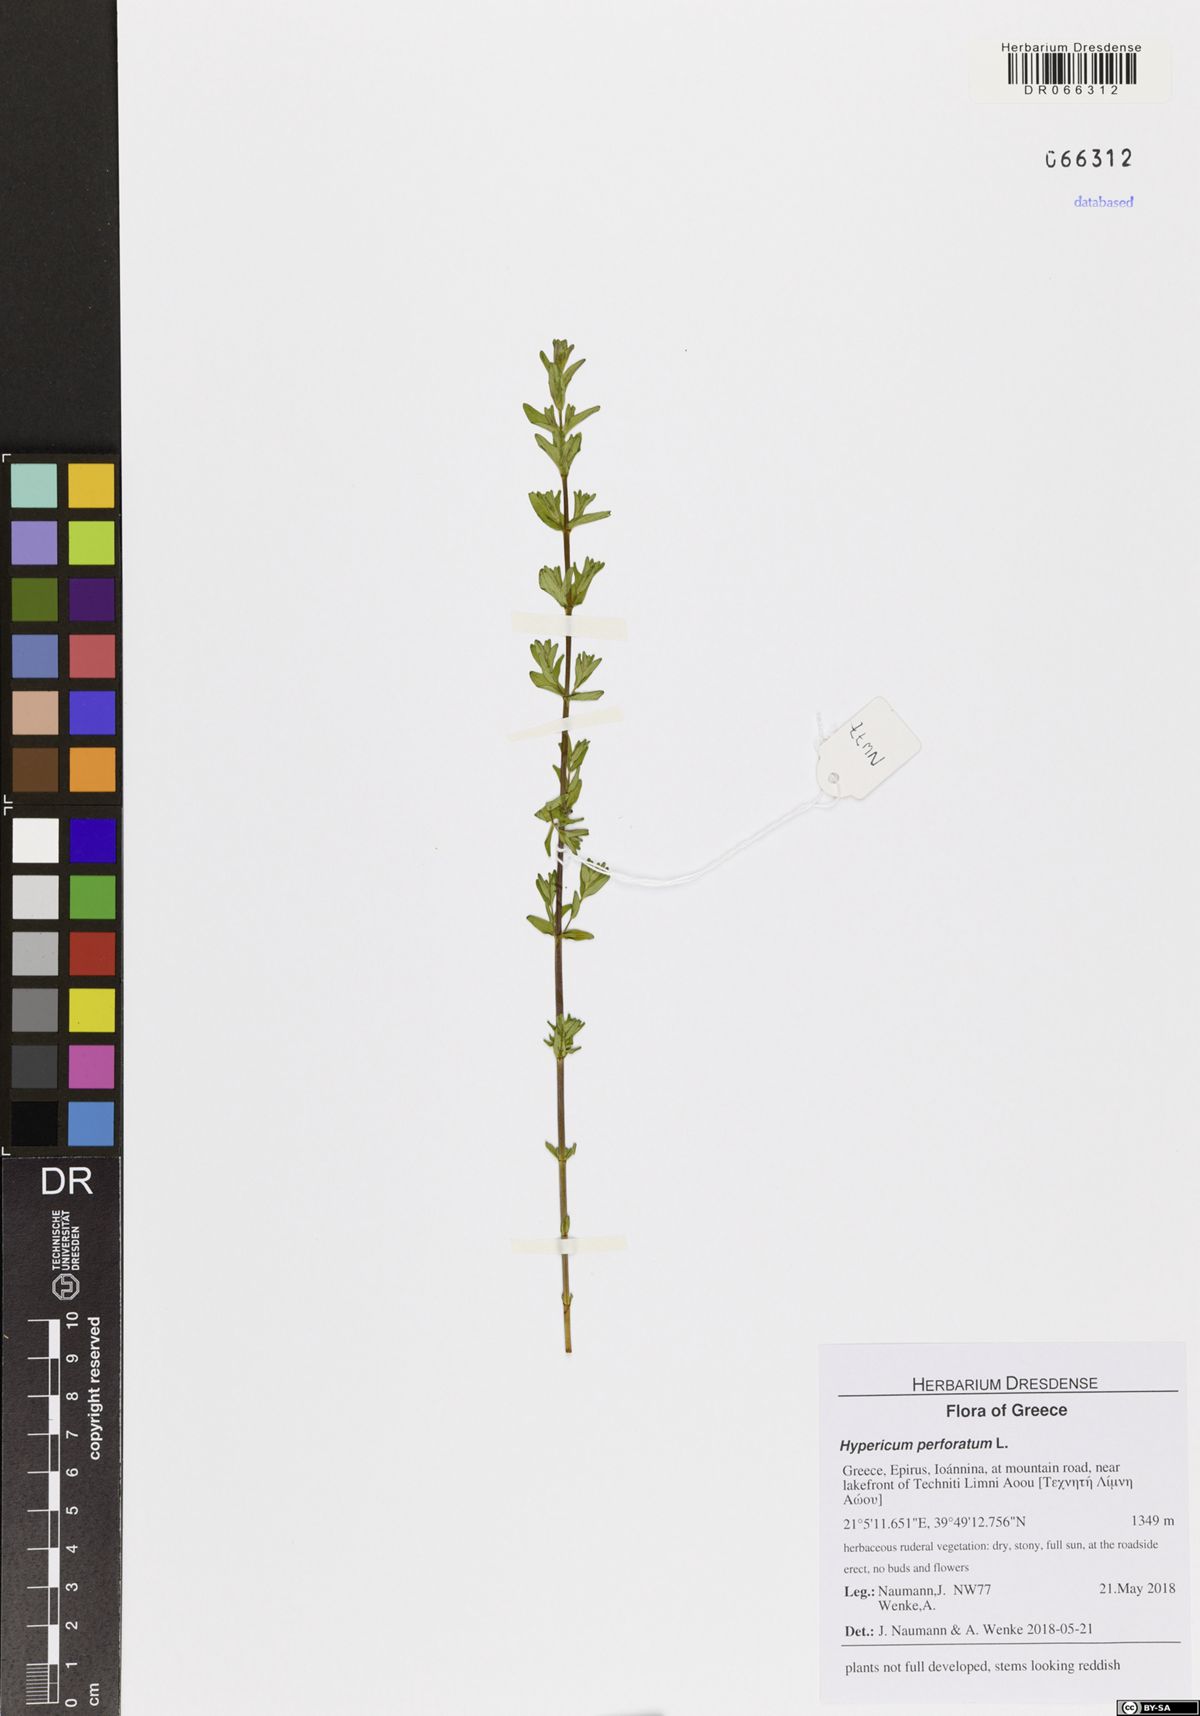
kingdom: Plantae
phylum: Tracheophyta
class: Magnoliopsida
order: Malpighiales
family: Hypericaceae
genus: Hypericum
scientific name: Hypericum perforatum
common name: Common st. johnswort
